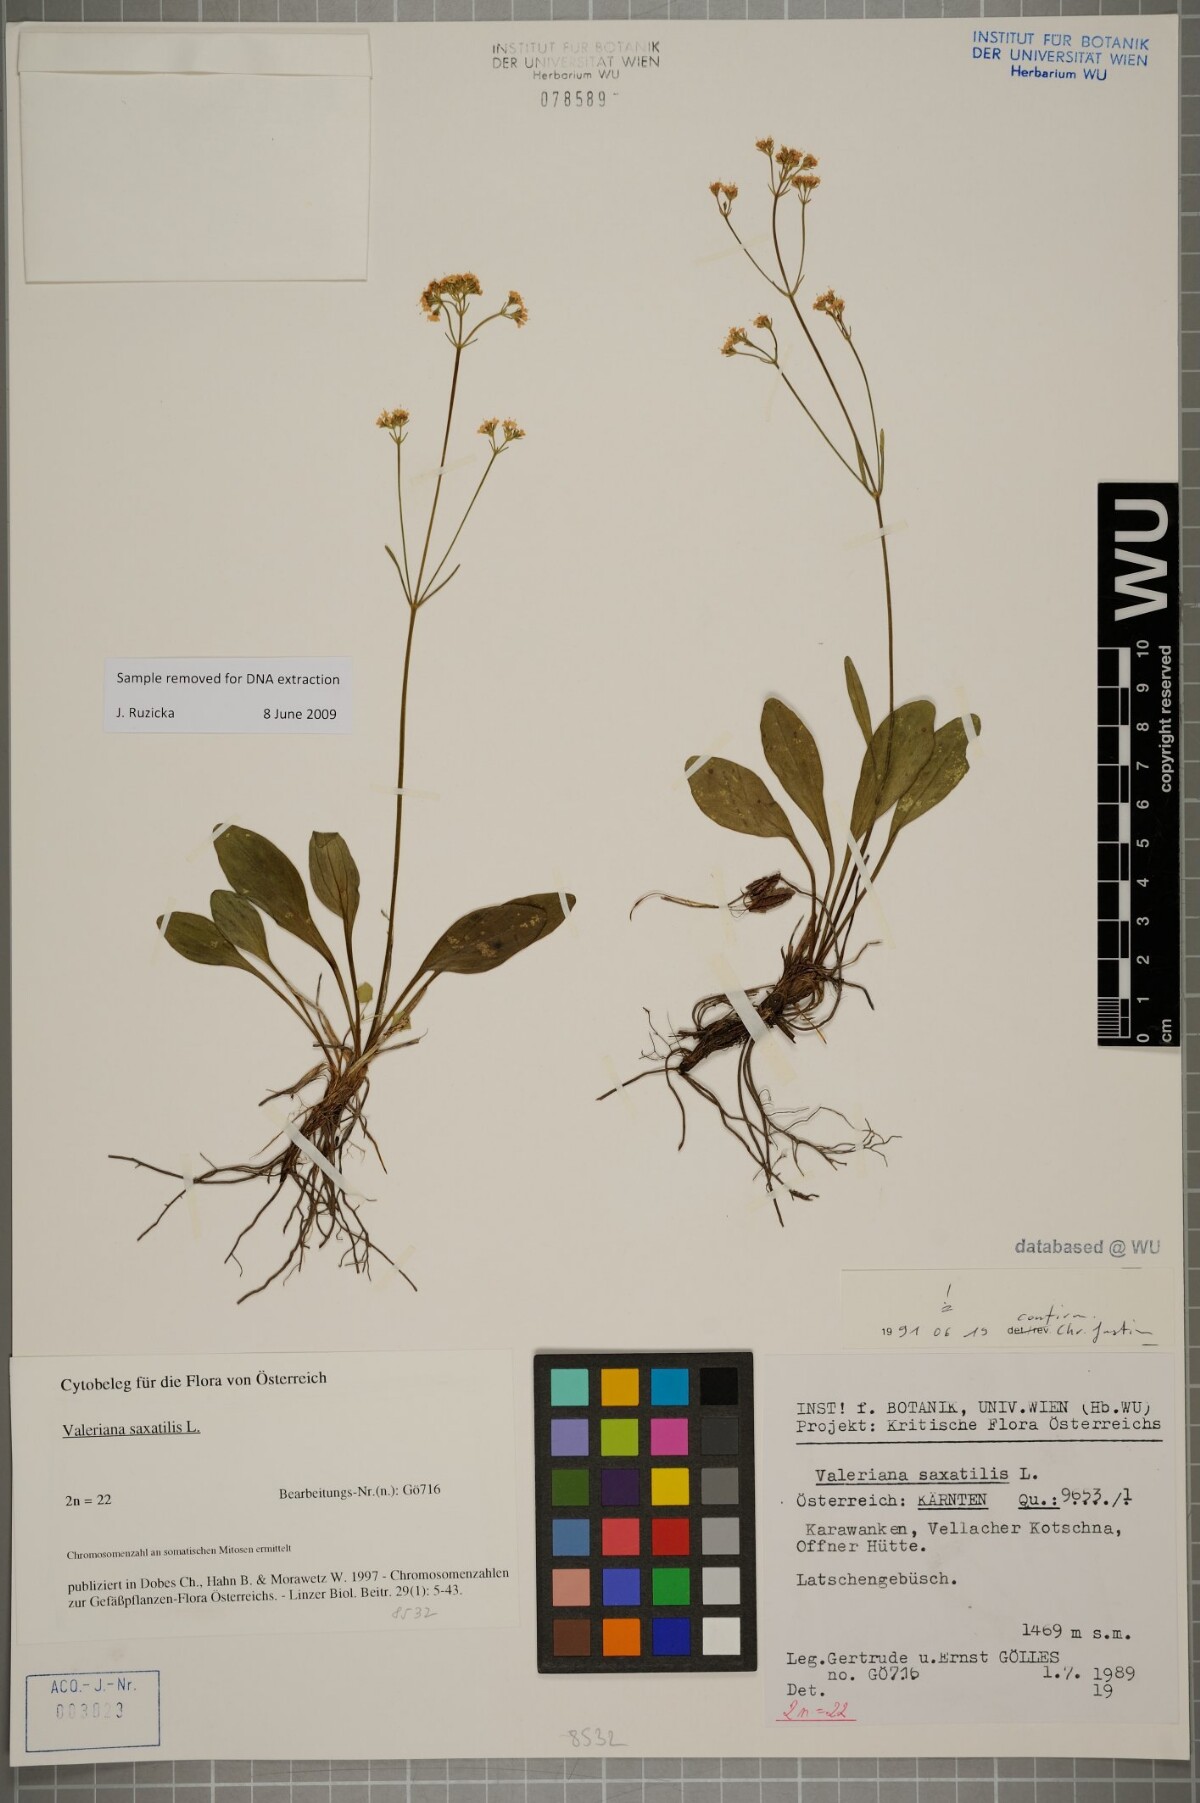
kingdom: Plantae
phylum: Tracheophyta
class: Magnoliopsida
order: Dipsacales
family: Caprifoliaceae
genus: Valeriana
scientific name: Valeriana saxatilis
